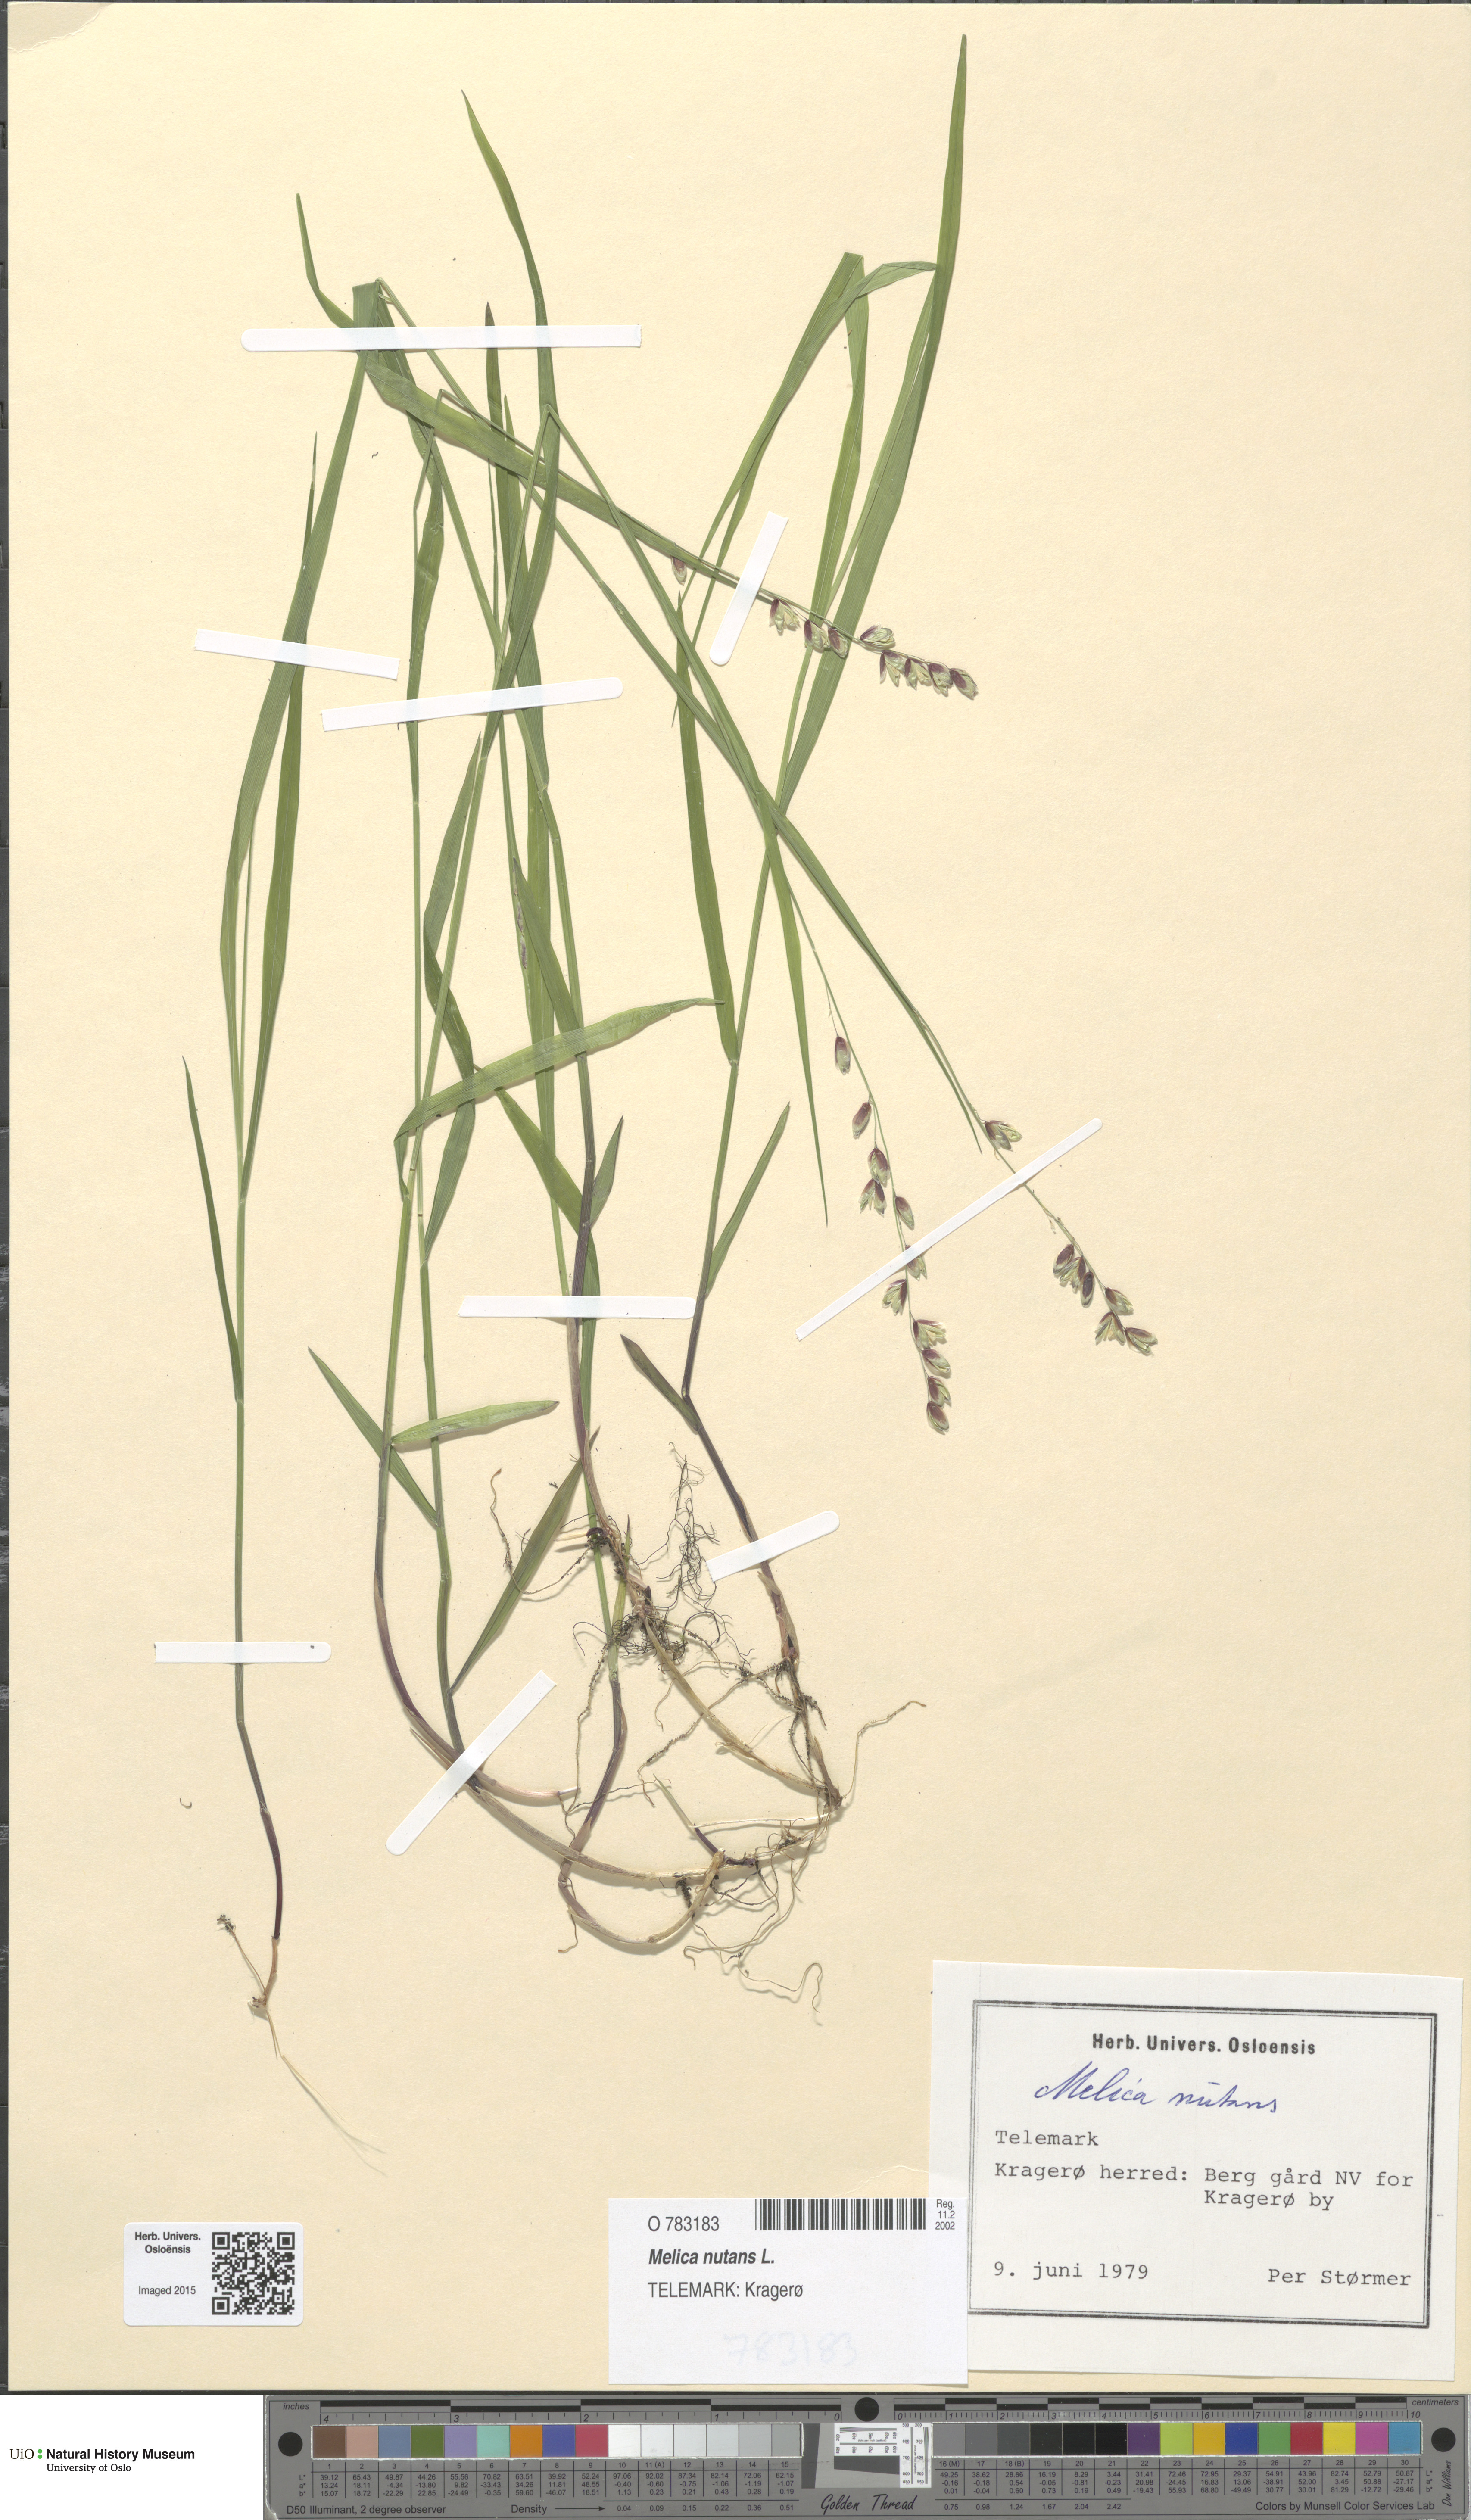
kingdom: Plantae
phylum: Tracheophyta
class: Liliopsida
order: Poales
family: Poaceae
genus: Melica
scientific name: Melica nutans
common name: Mountain melick
